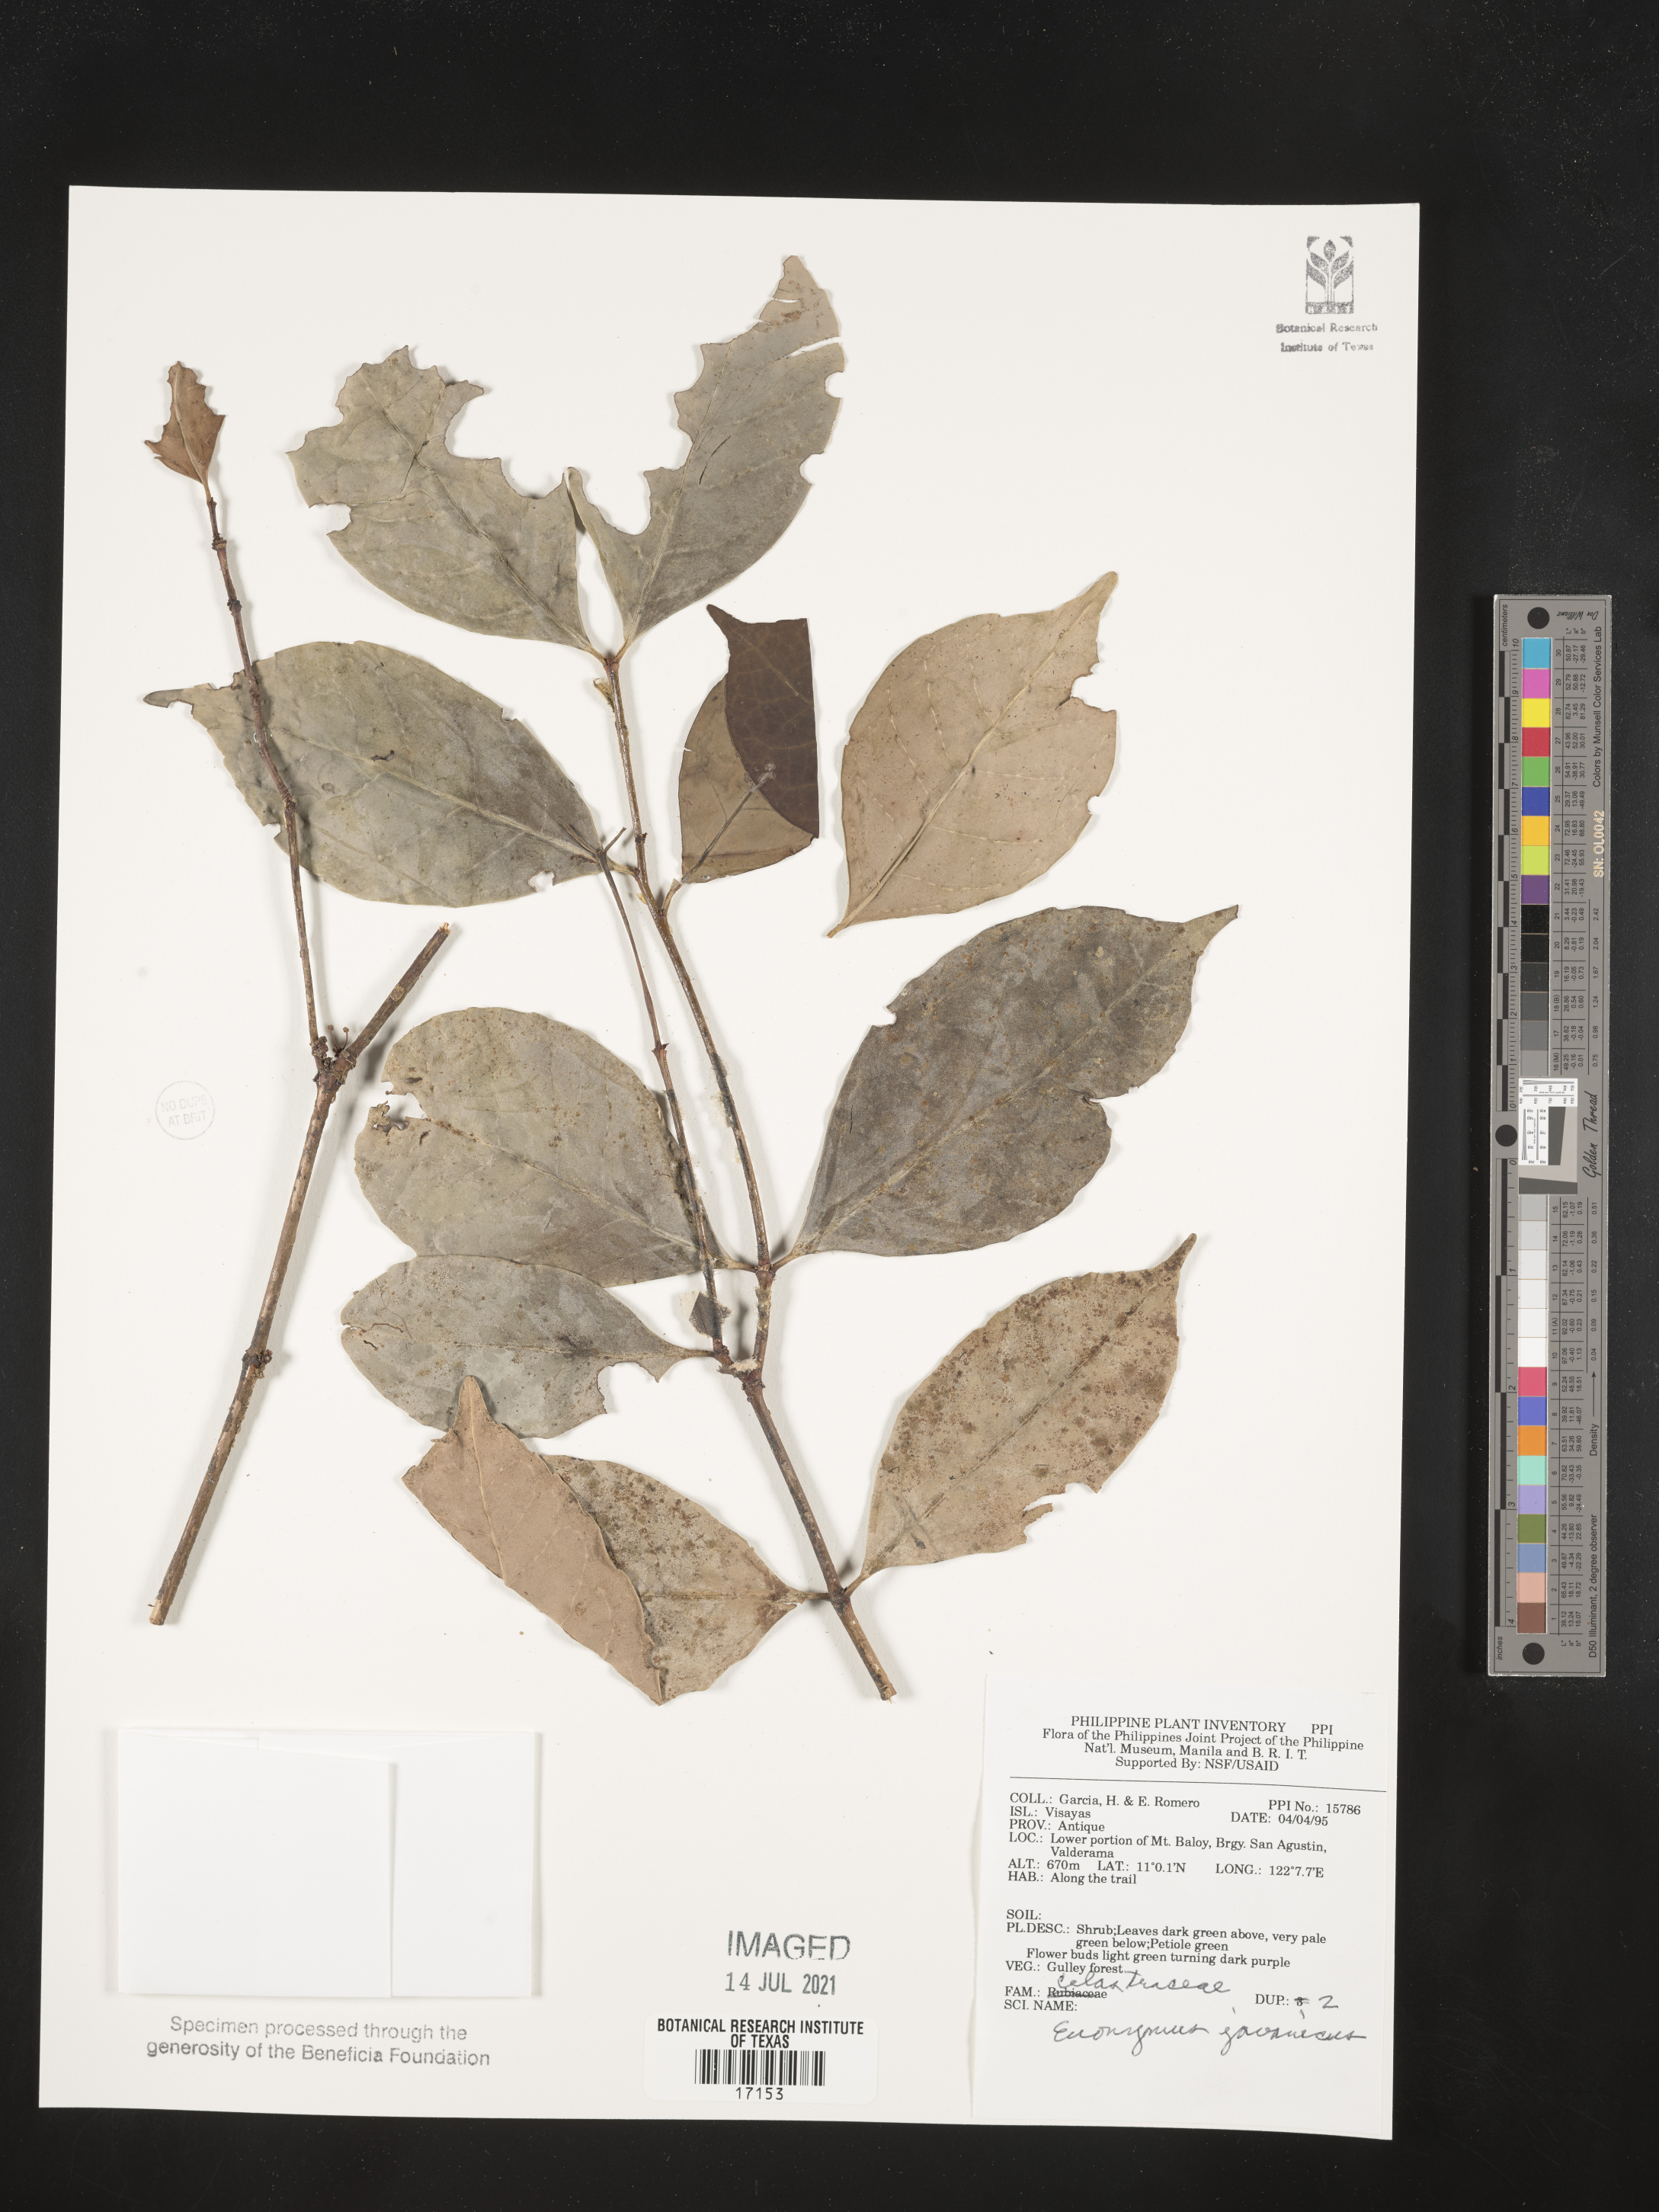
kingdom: Plantae
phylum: Tracheophyta
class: Magnoliopsida
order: Celastrales
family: Celastraceae
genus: Euonymus
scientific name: Euonymus indicus
